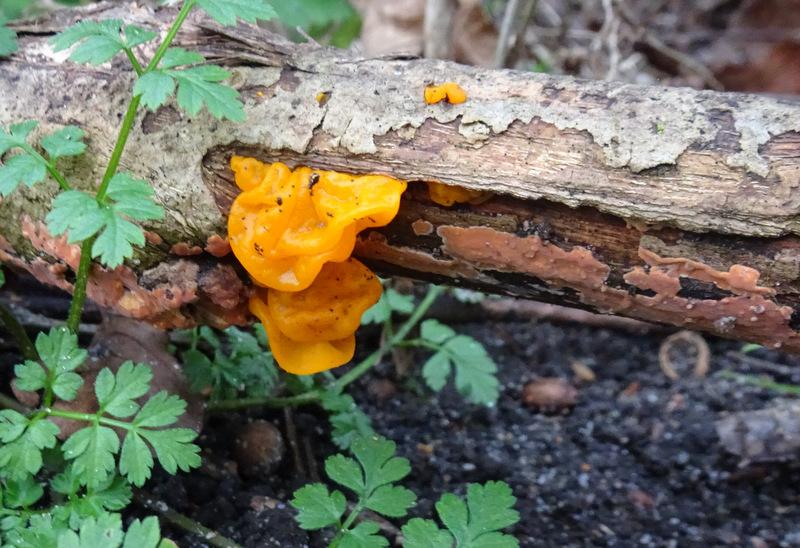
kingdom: Fungi
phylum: Basidiomycota
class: Tremellomycetes
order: Tremellales
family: Tremellaceae
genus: Tremella
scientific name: Tremella mesenterica
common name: gul bævresvamp
